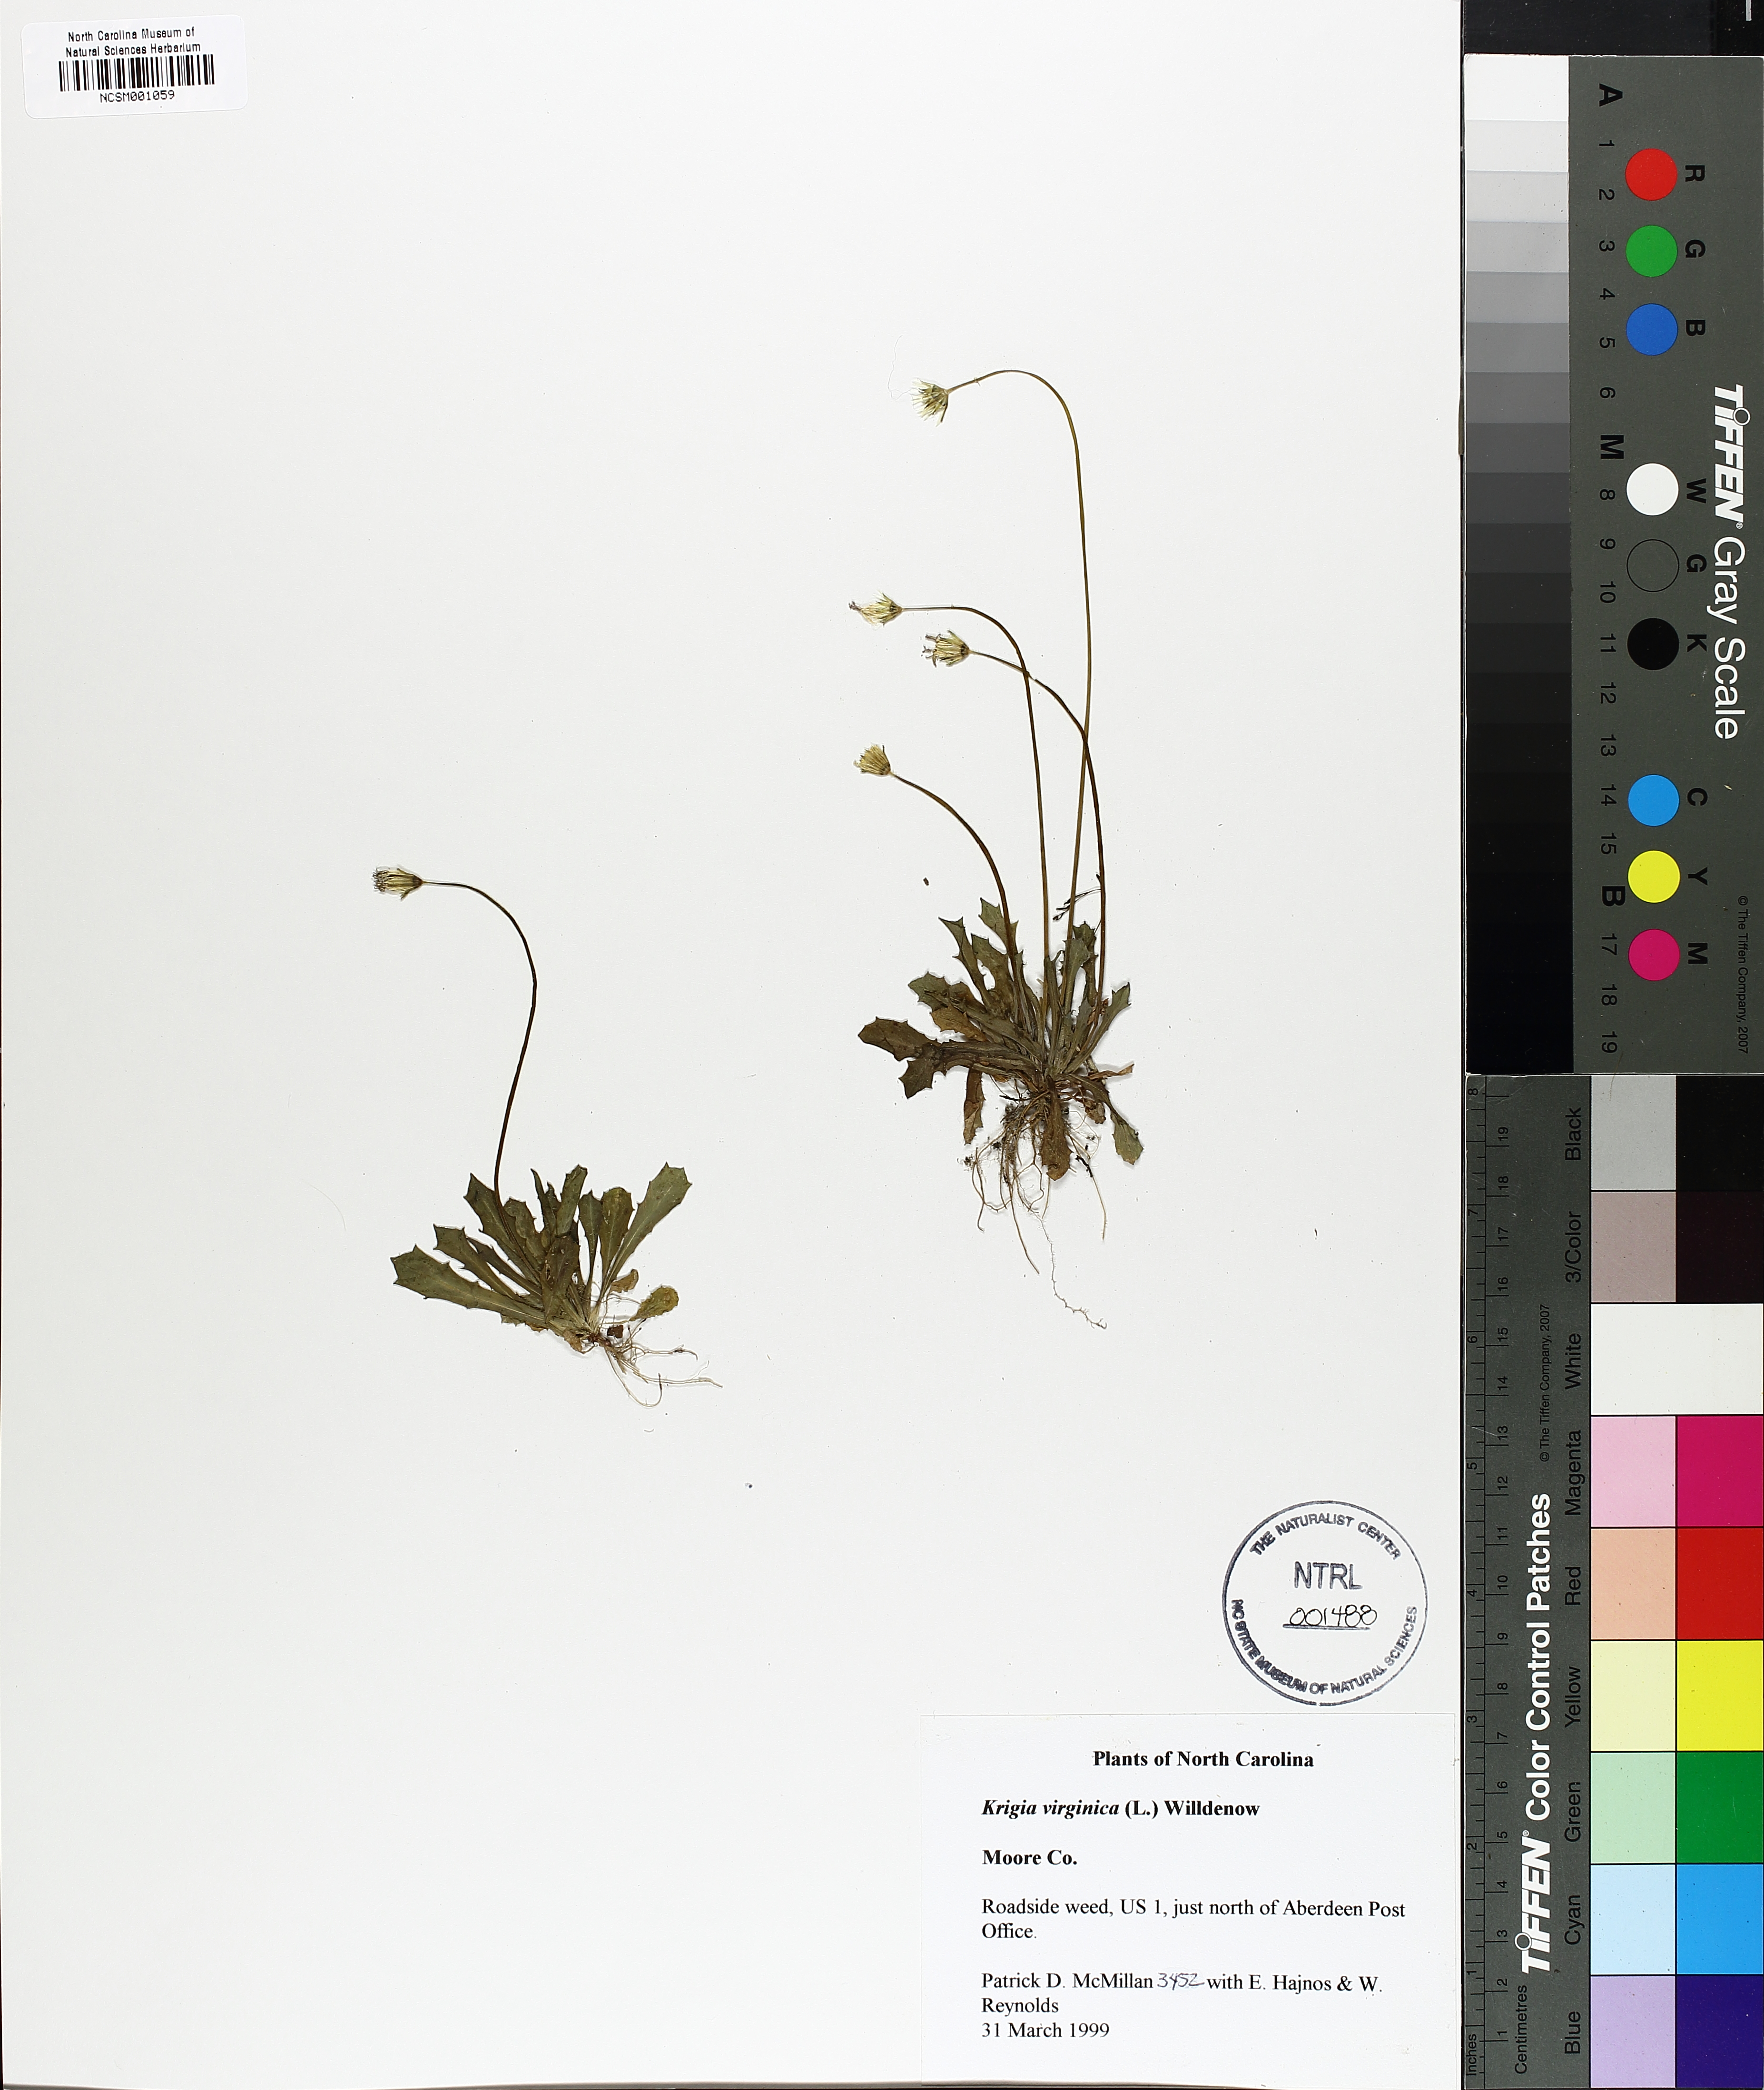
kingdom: Plantae
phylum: Tracheophyta
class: Magnoliopsida
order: Asterales
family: Asteraceae
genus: Krigia
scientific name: Krigia virginica
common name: Virginia dwarf-dandelion
